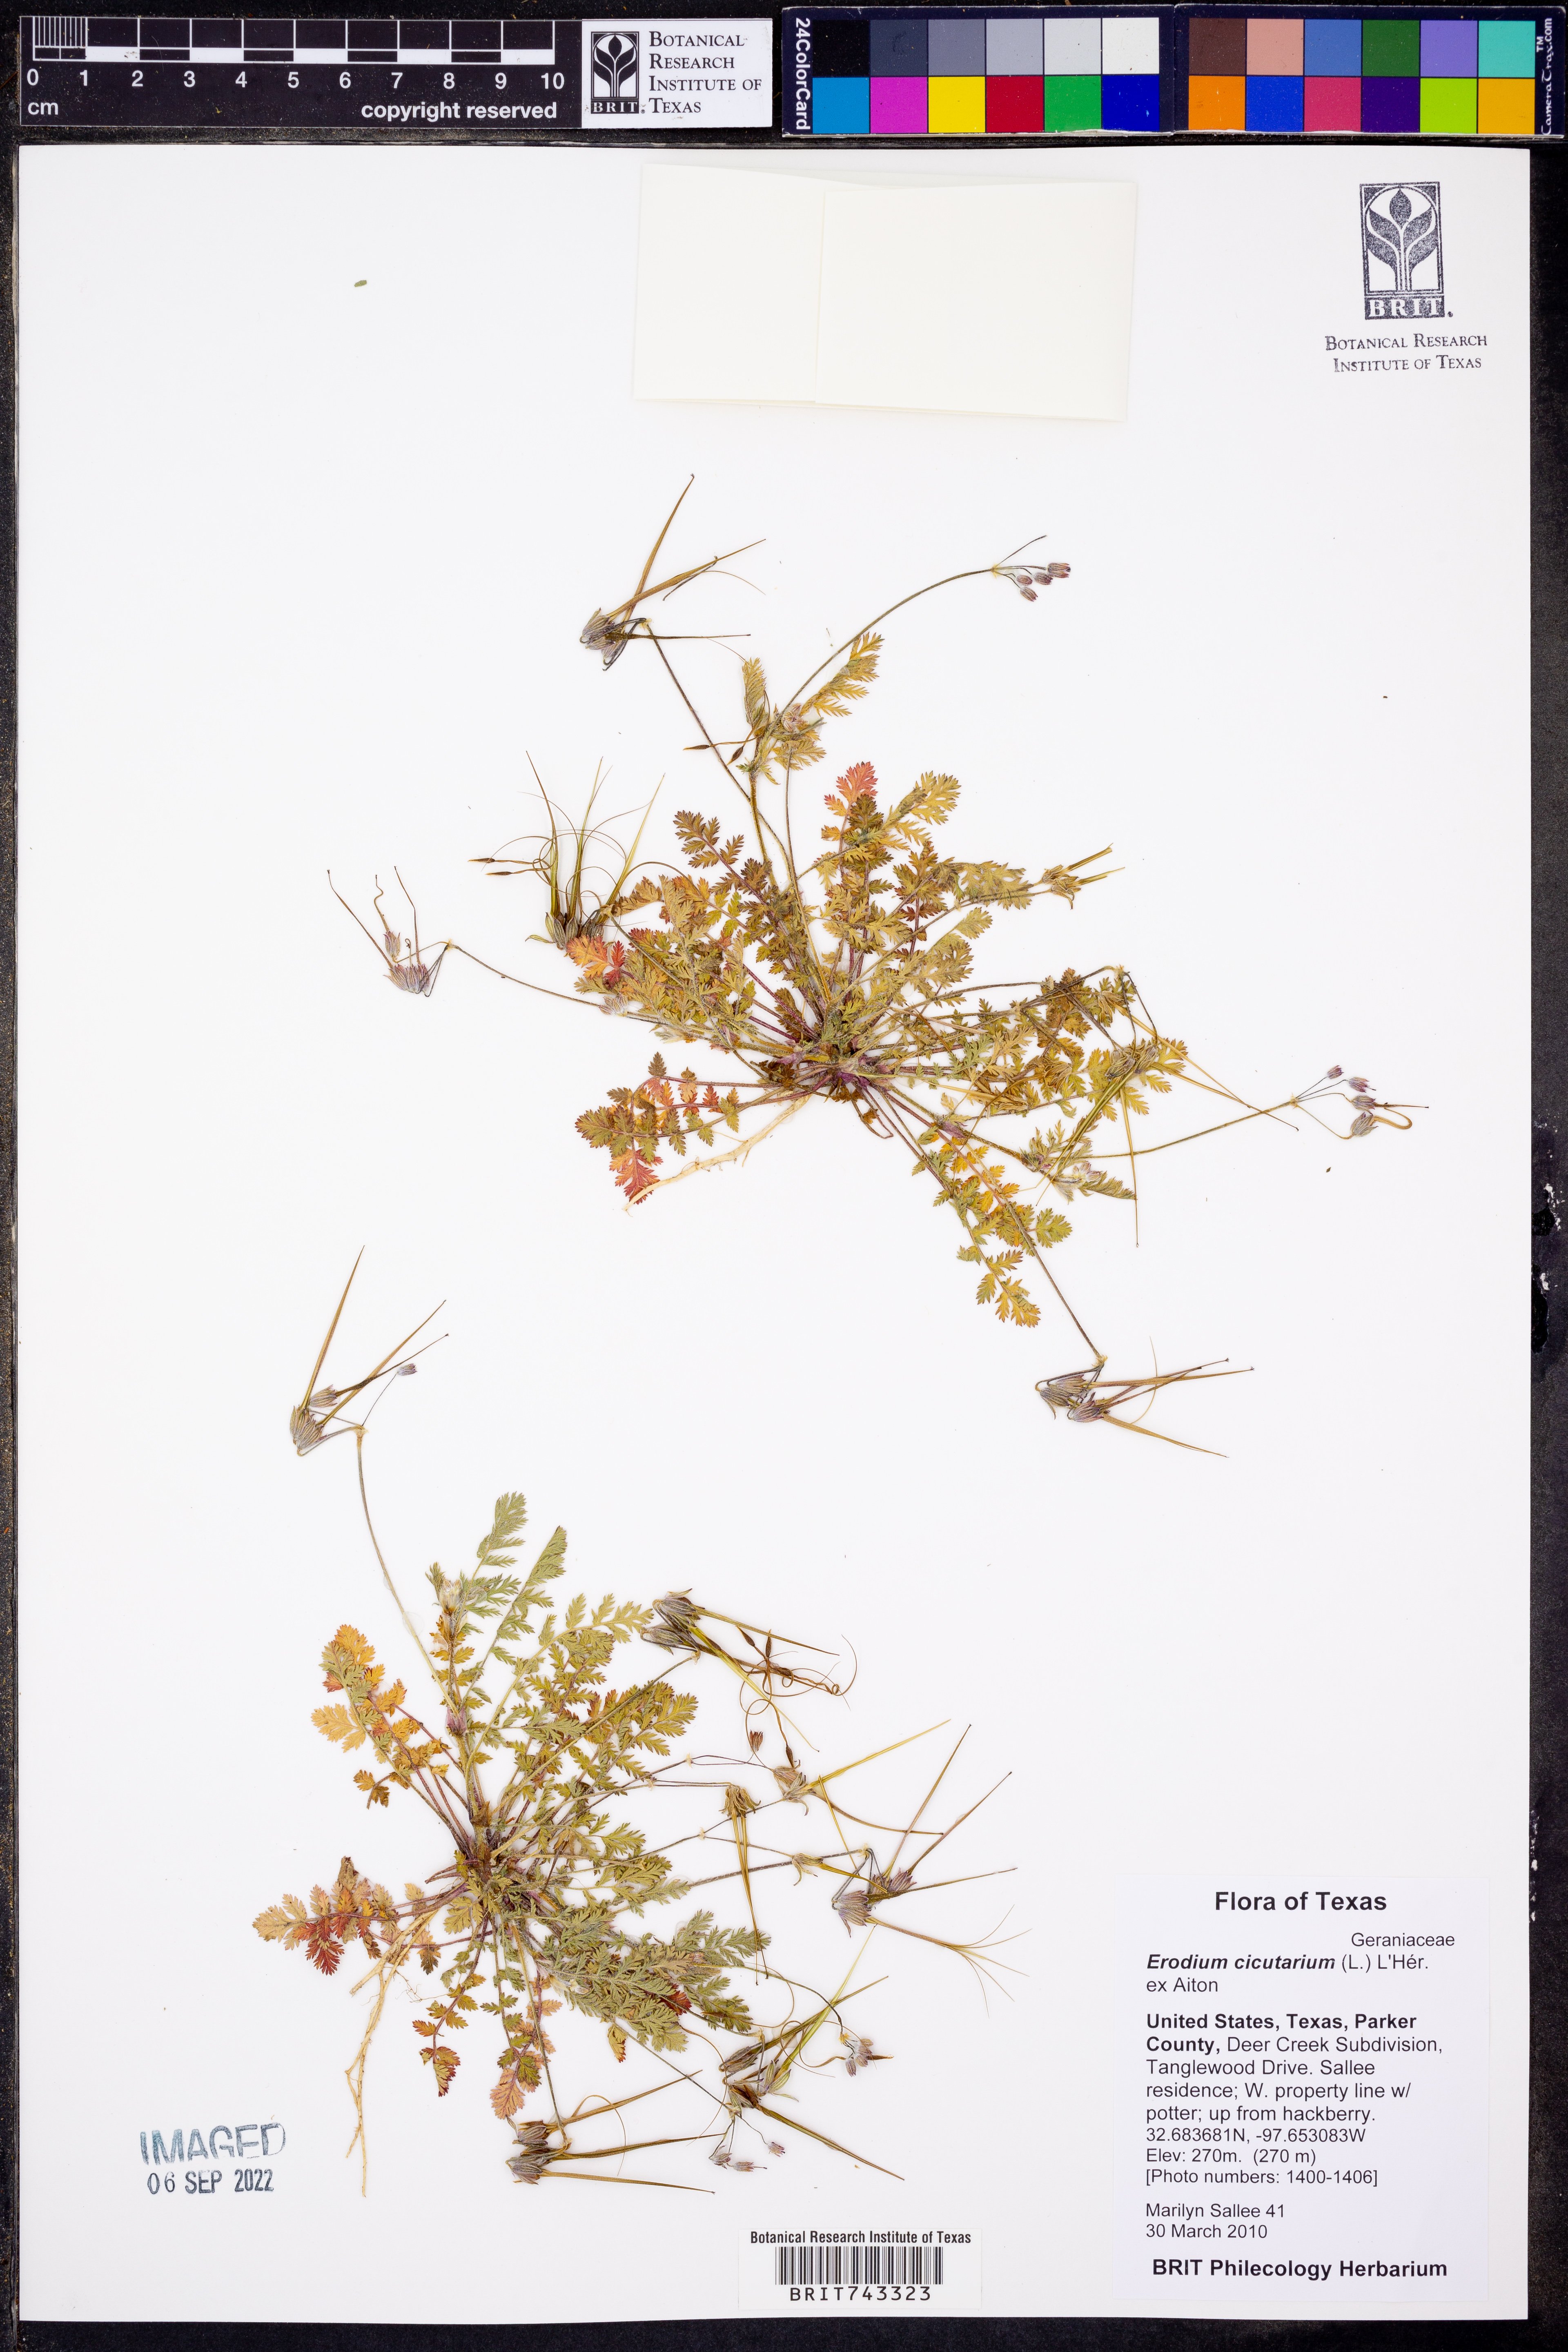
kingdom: Plantae
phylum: Tracheophyta
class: Magnoliopsida
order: Geraniales
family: Geraniaceae
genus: Erodium
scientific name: Erodium cicutarium
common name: Common stork's-bill
